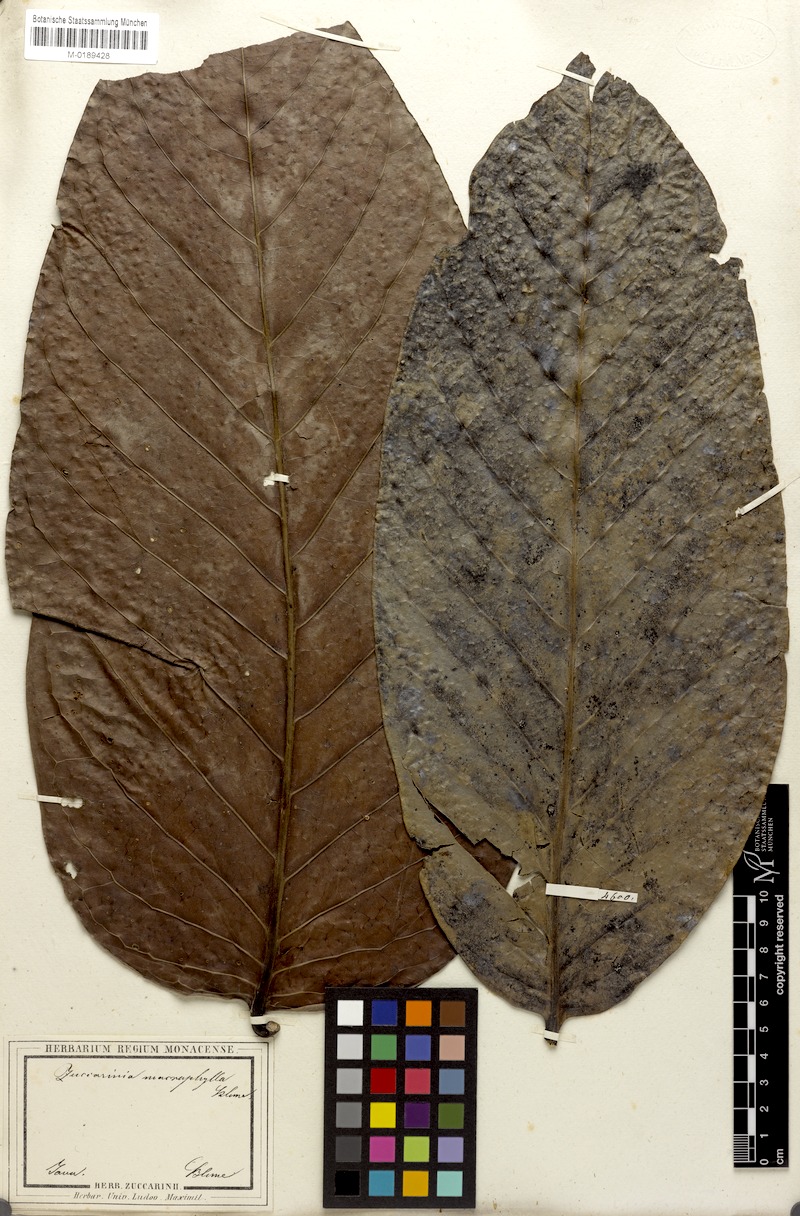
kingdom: Plantae
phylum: Tracheophyta
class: Magnoliopsida
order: Gentianales
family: Rubiaceae
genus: Zuccarinia
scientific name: Zuccarinia macrophylla
